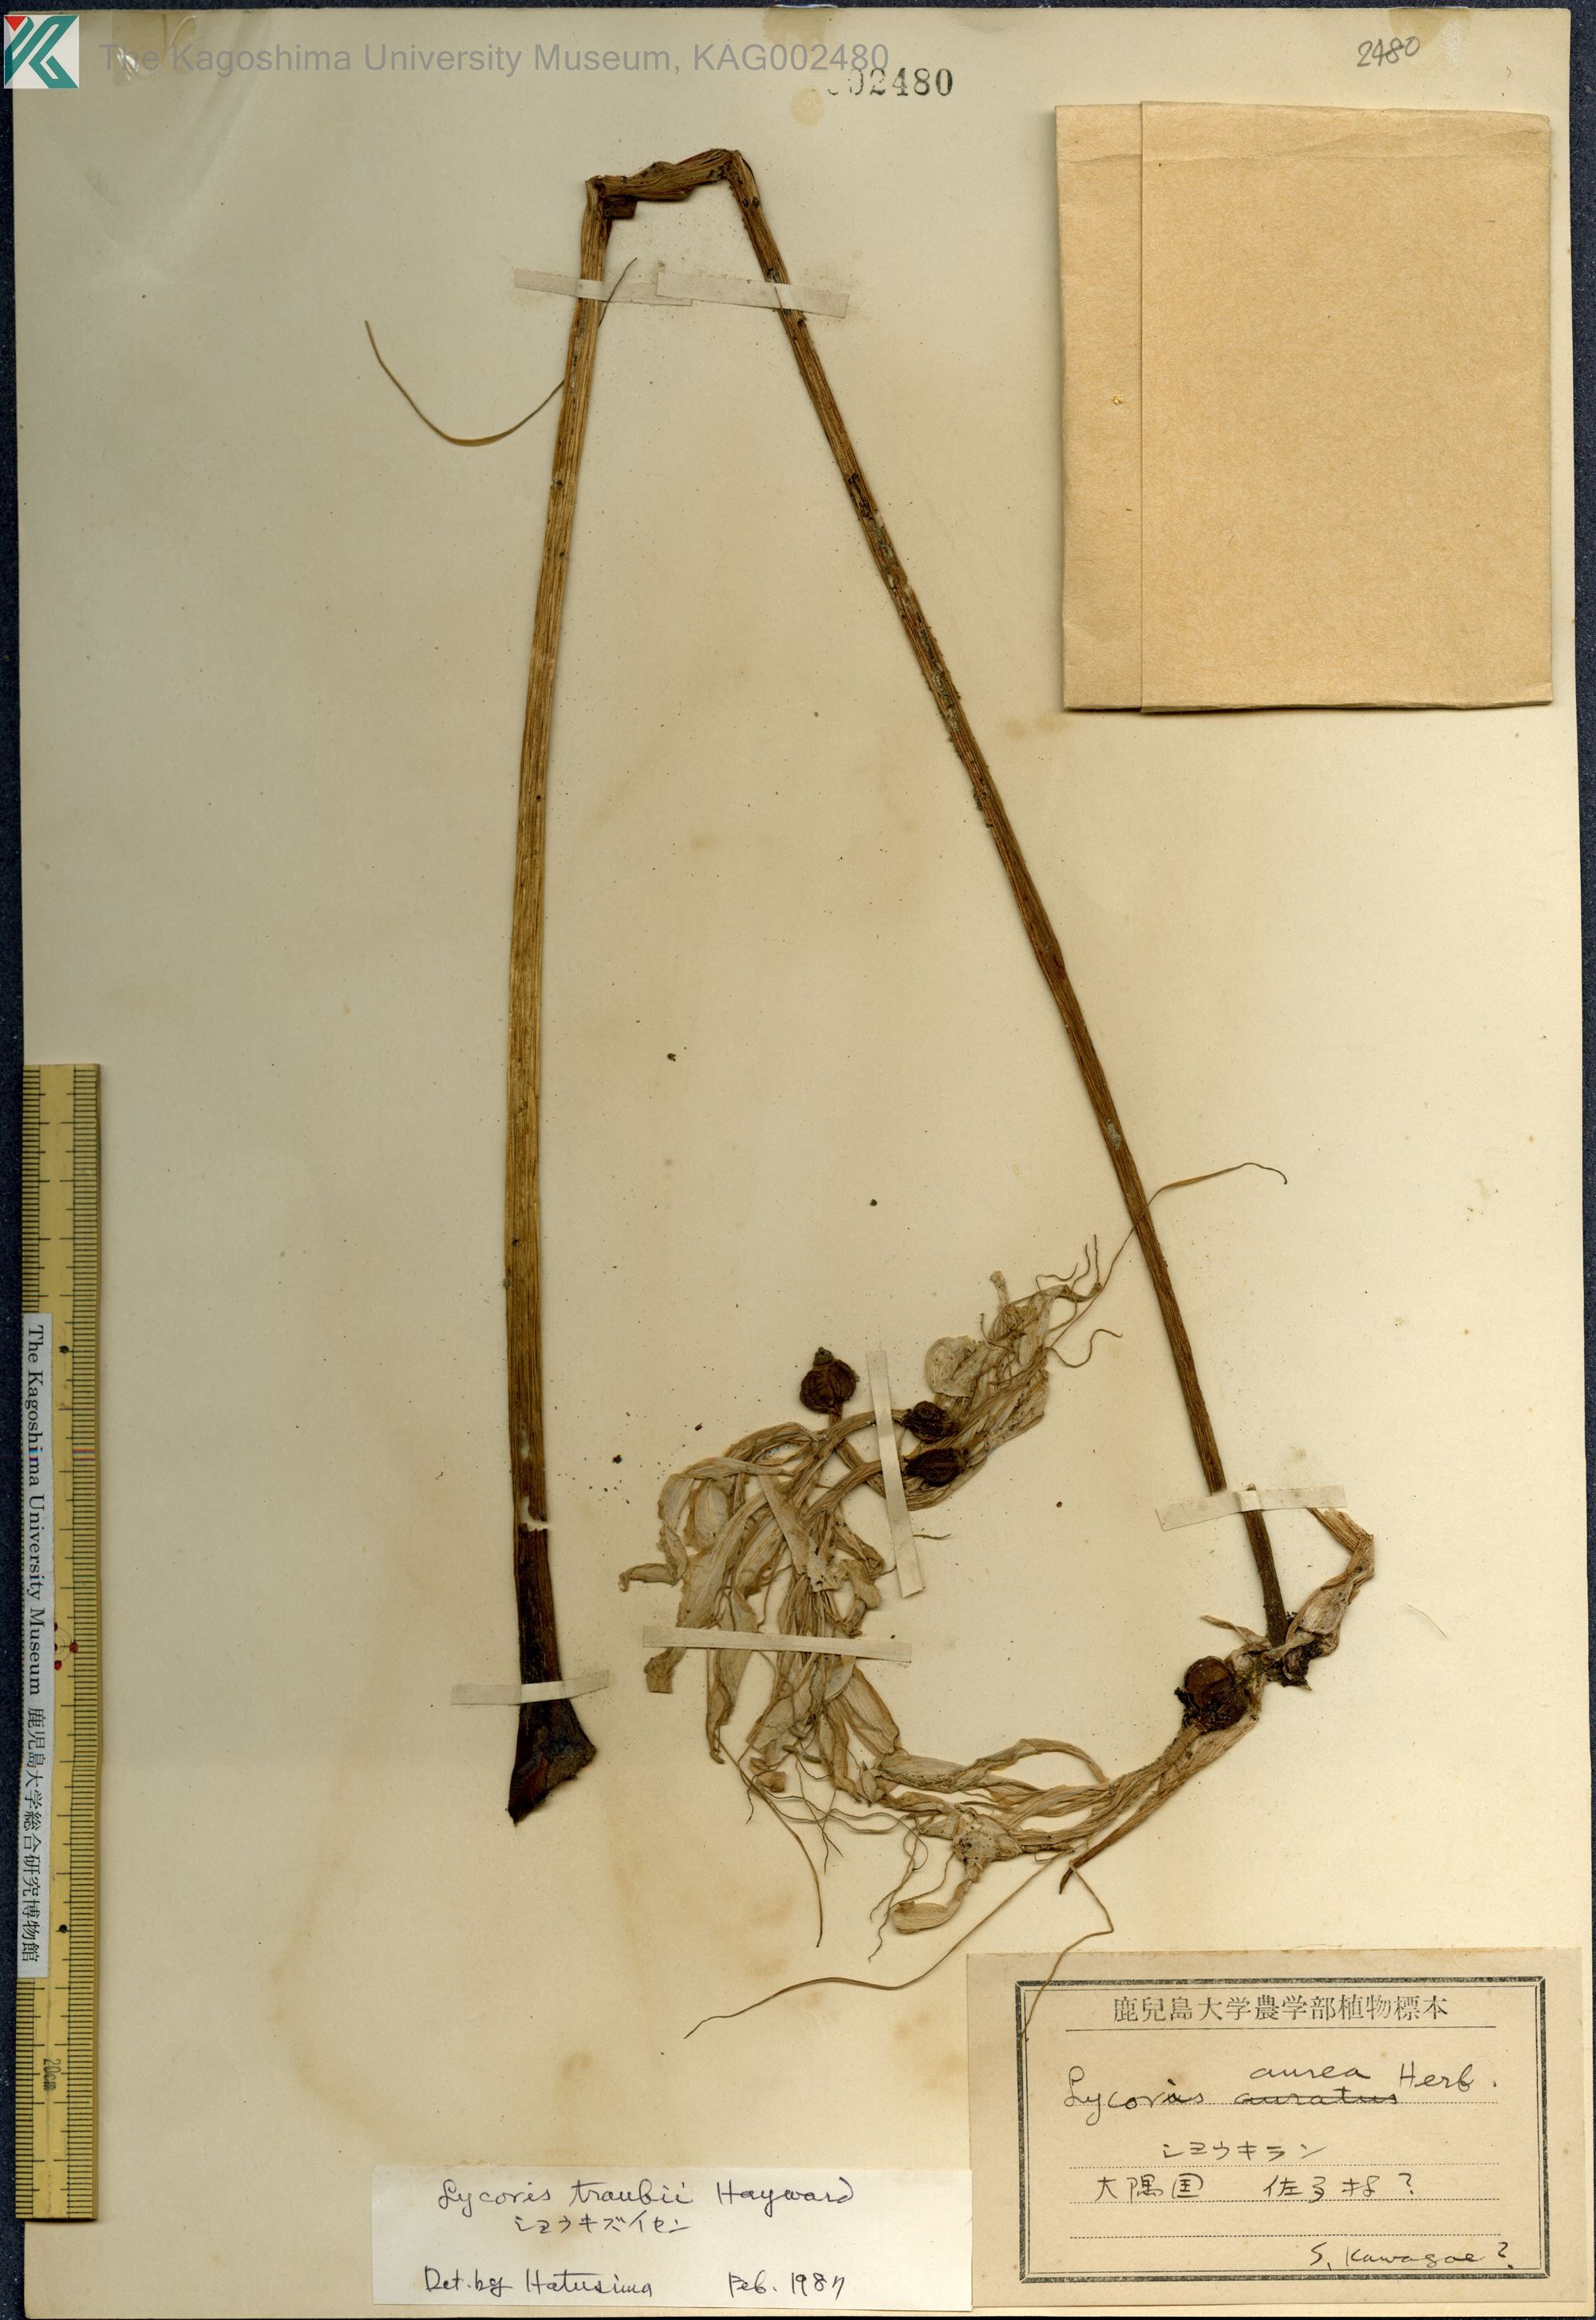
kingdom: Plantae
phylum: Tracheophyta
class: Liliopsida
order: Asparagales
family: Amaryllidaceae
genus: Lycoris
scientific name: Lycoris traubii
